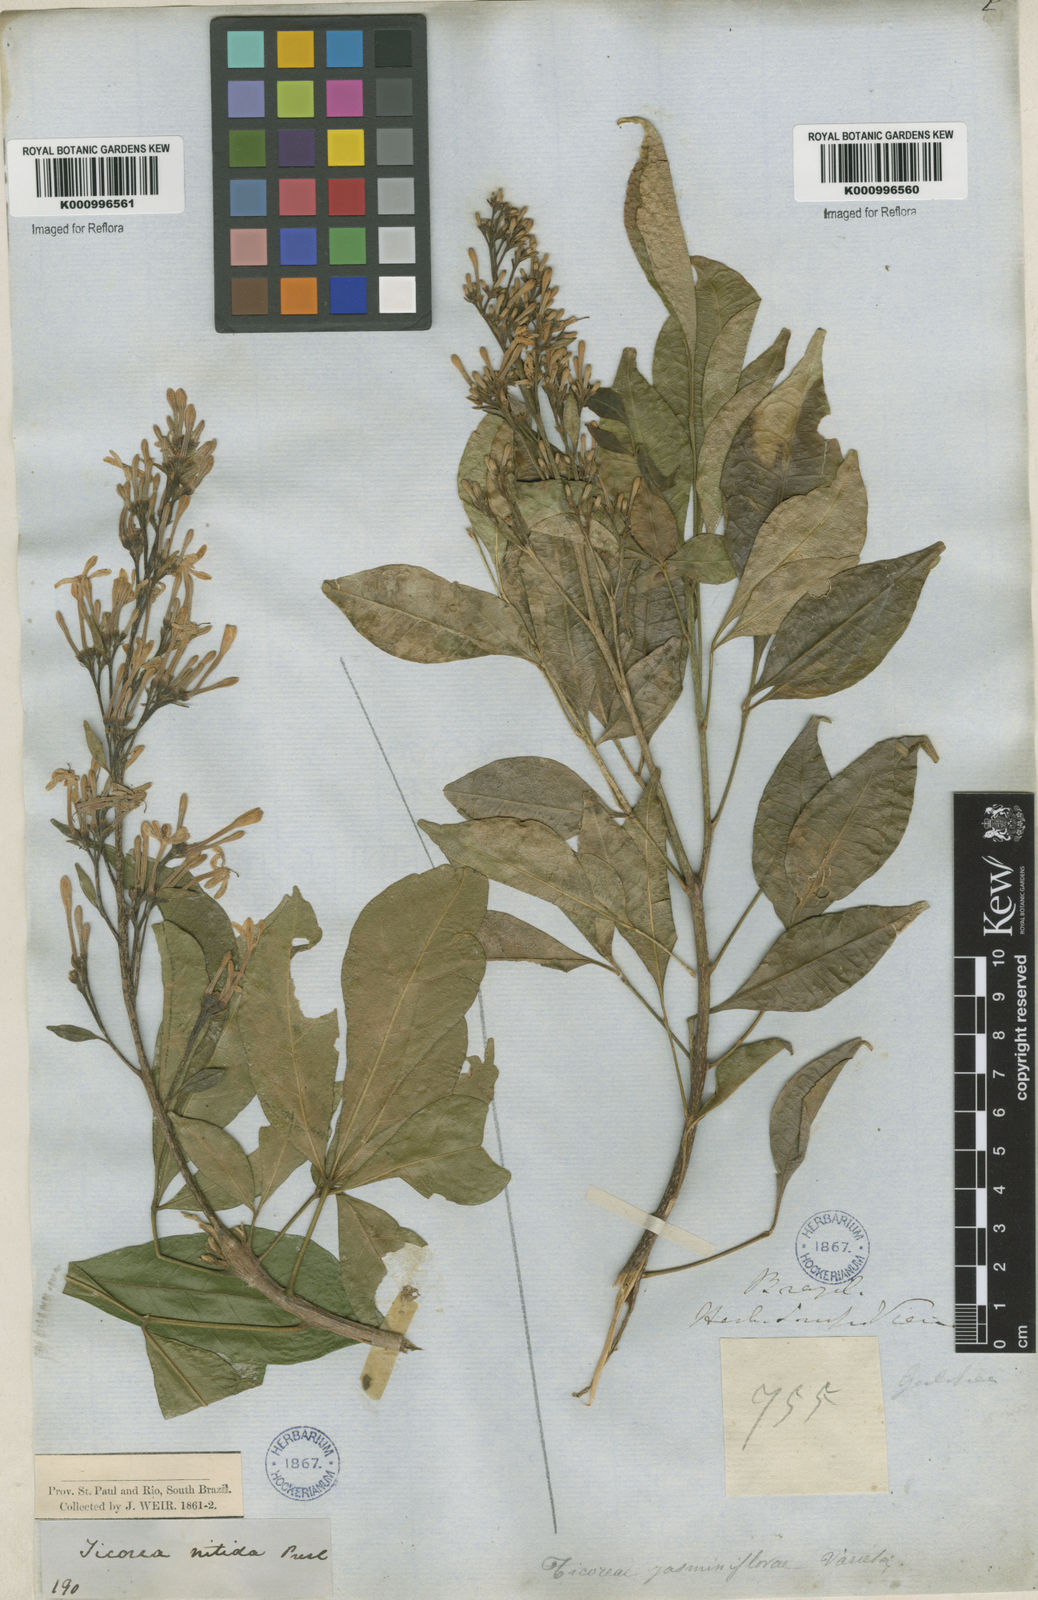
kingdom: Plantae
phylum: Tracheophyta
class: Magnoliopsida
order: Sapindales
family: Rutaceae
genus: Galipea
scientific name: Galipea
